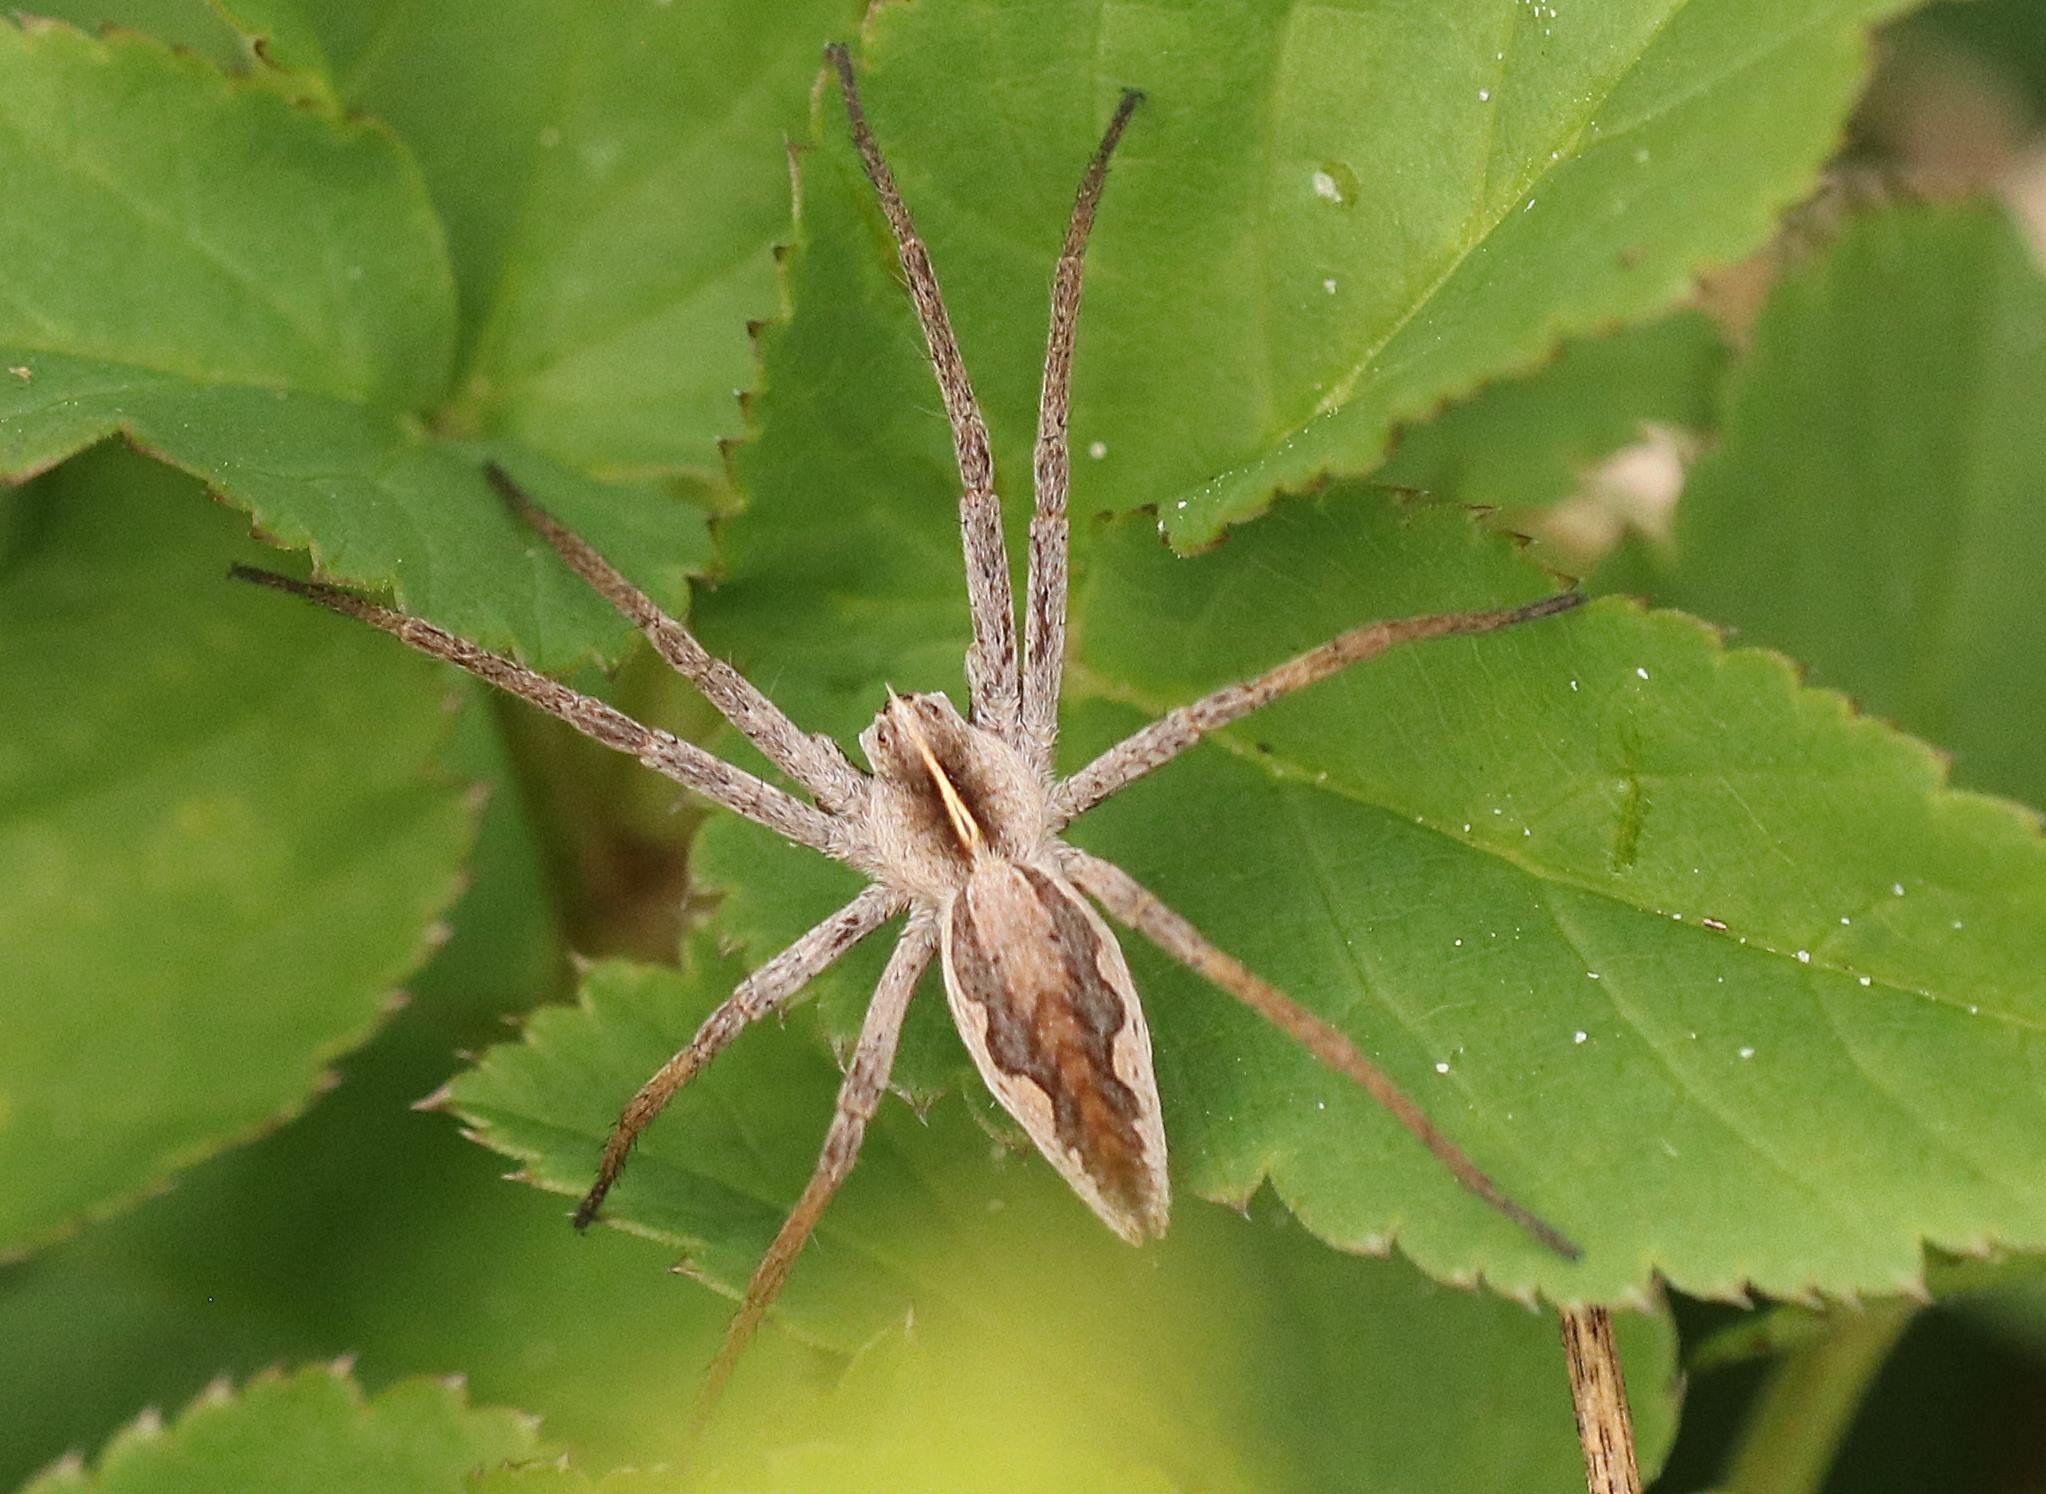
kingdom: Animalia
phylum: Arthropoda
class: Arachnida
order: Araneae
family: Pisauridae
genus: Pisaura
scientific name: Pisaura mirabilis
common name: Almindelig rovedderkop
